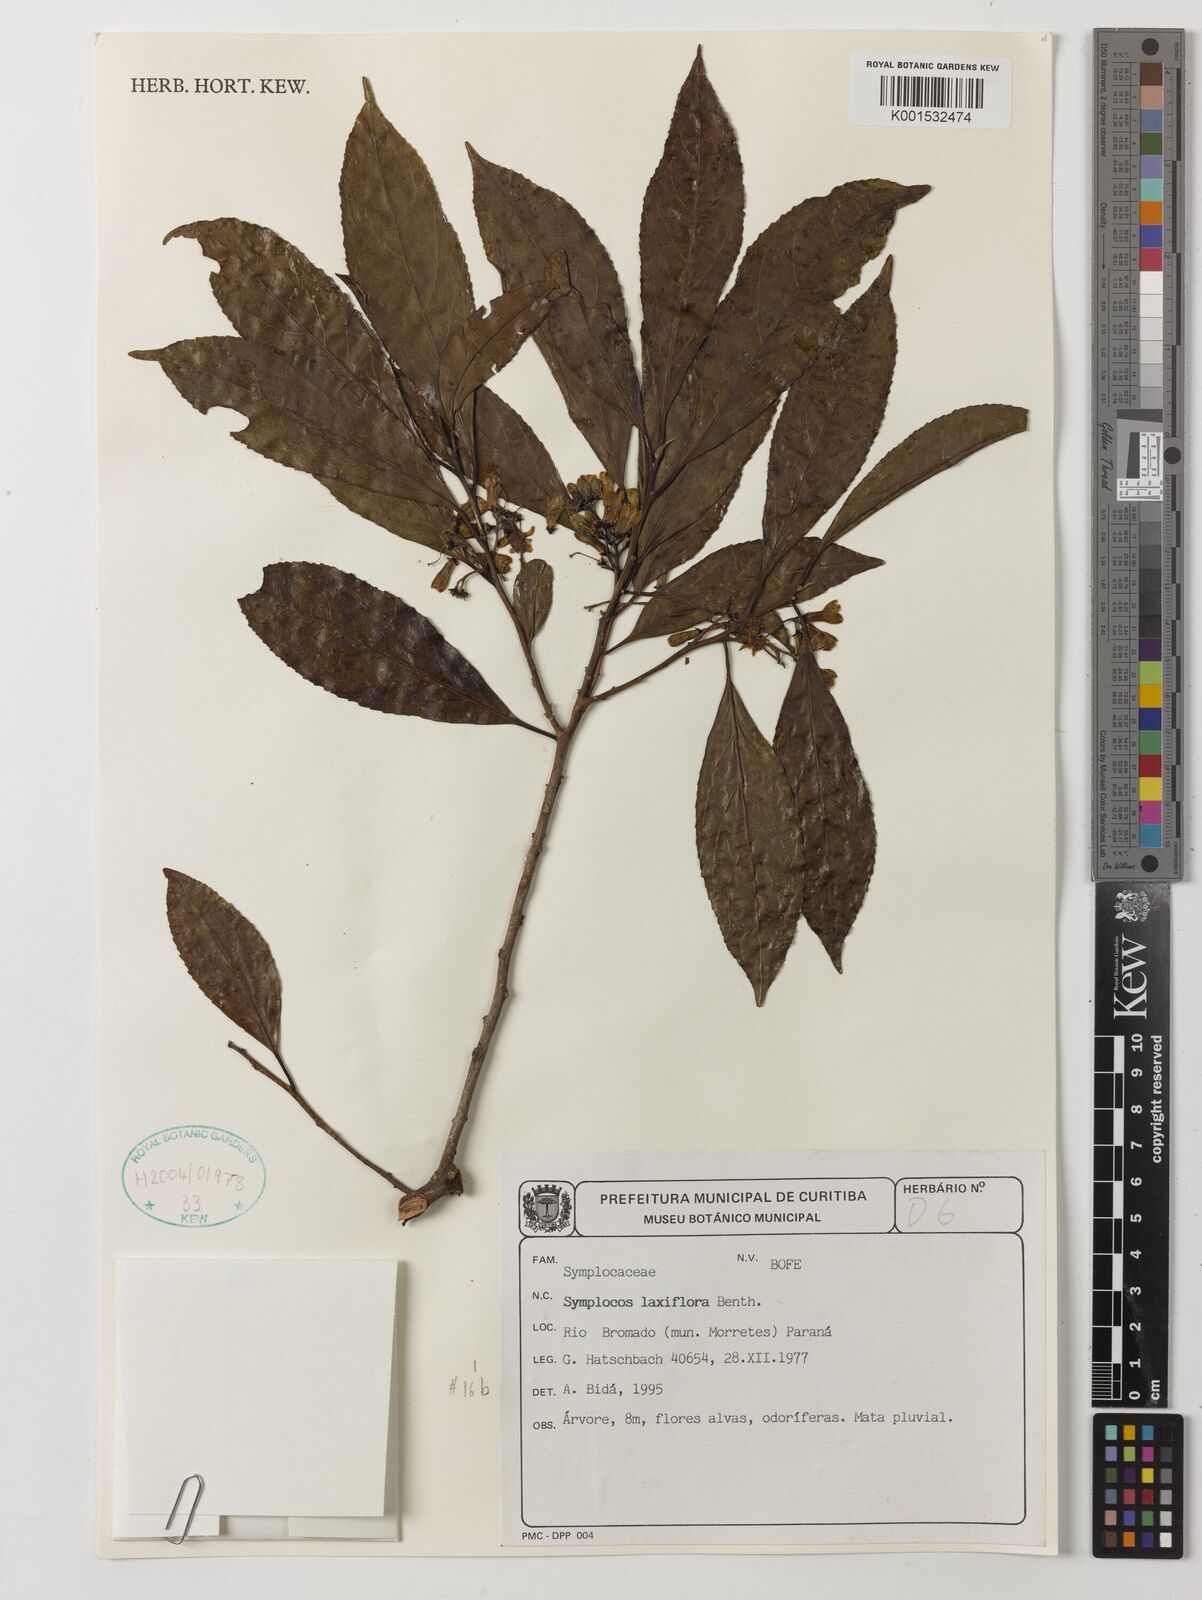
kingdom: Plantae
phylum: Tracheophyta
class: Magnoliopsida
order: Ericales
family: Symplocaceae
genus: Symplocos
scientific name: Symplocos laxiflora
